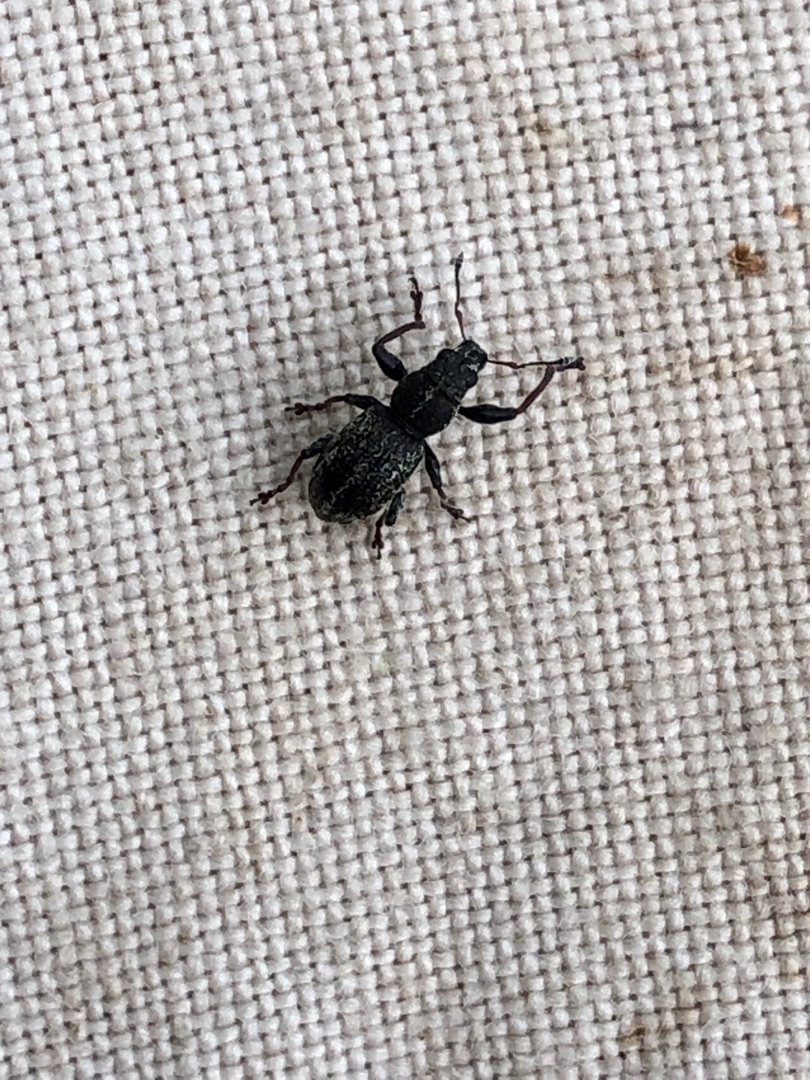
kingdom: Animalia
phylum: Arthropoda
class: Insecta
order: Coleoptera
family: Curculionidae
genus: Andrion
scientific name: Andrion regensteinense
